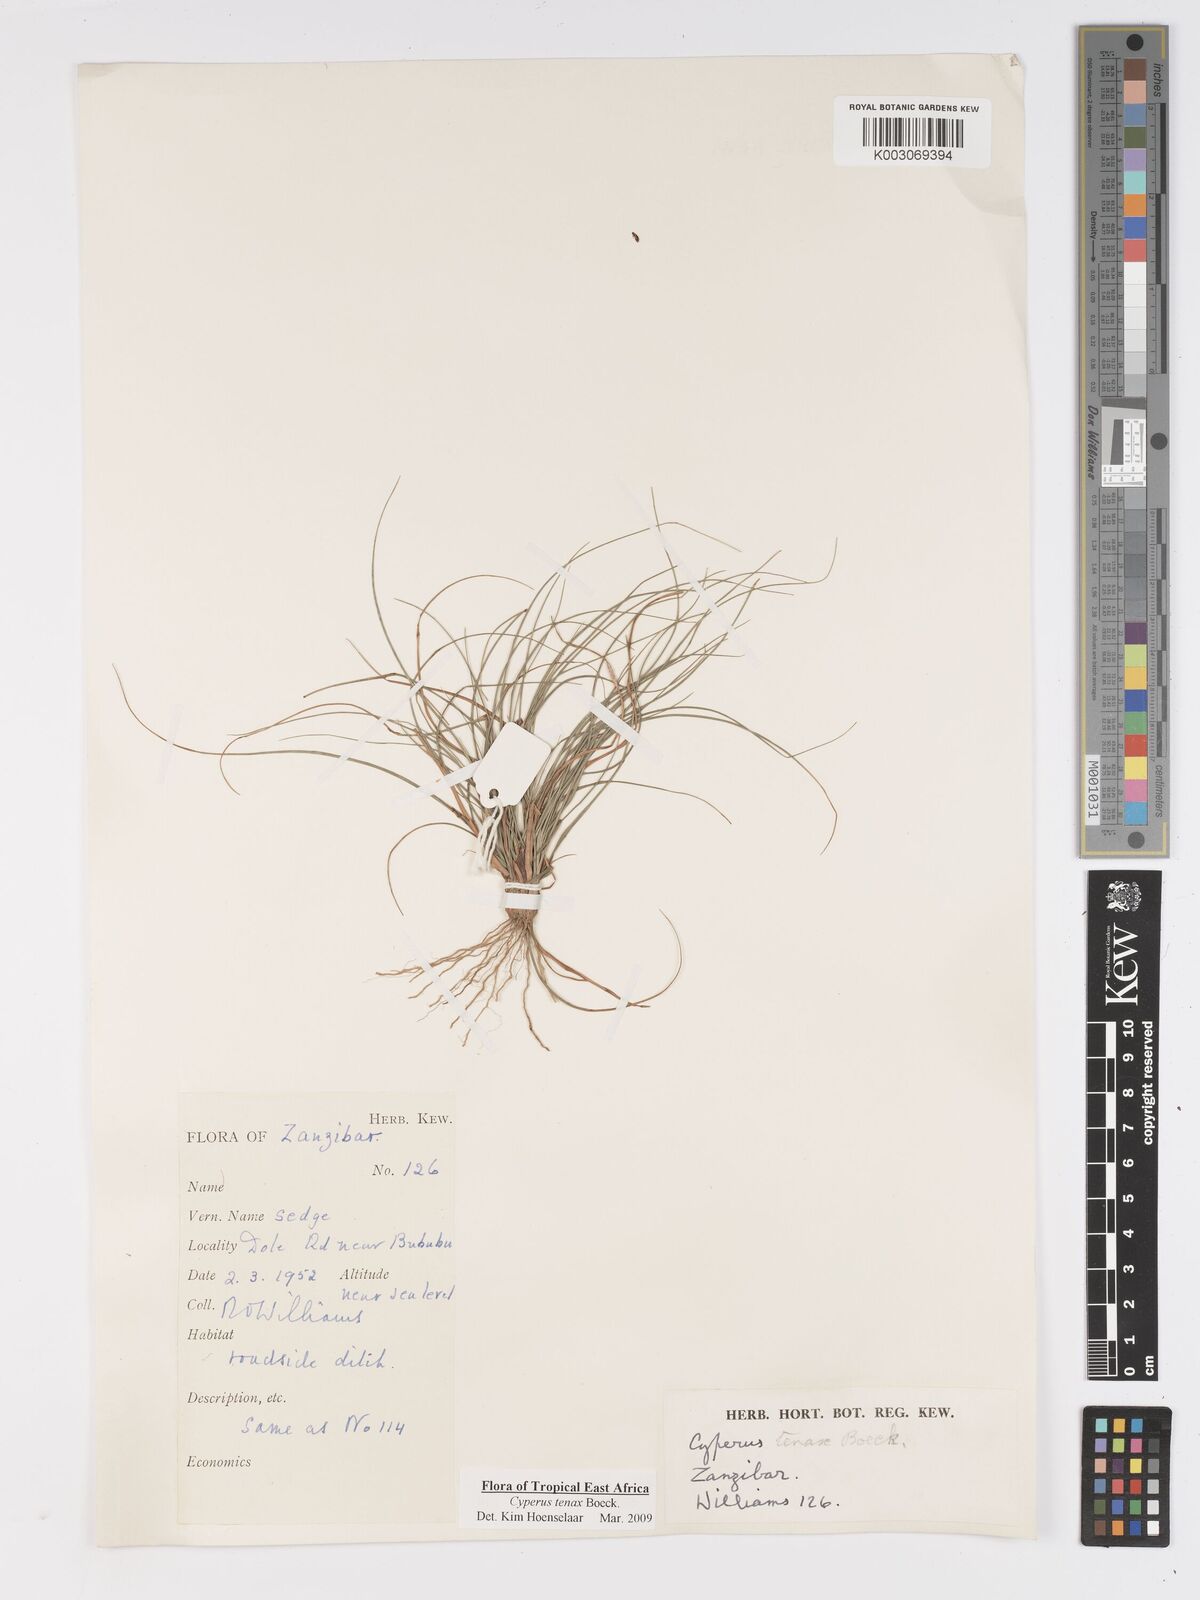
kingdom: Plantae
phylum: Tracheophyta
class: Liliopsida
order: Poales
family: Cyperaceae
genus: Cyperus
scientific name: Cyperus tenax
